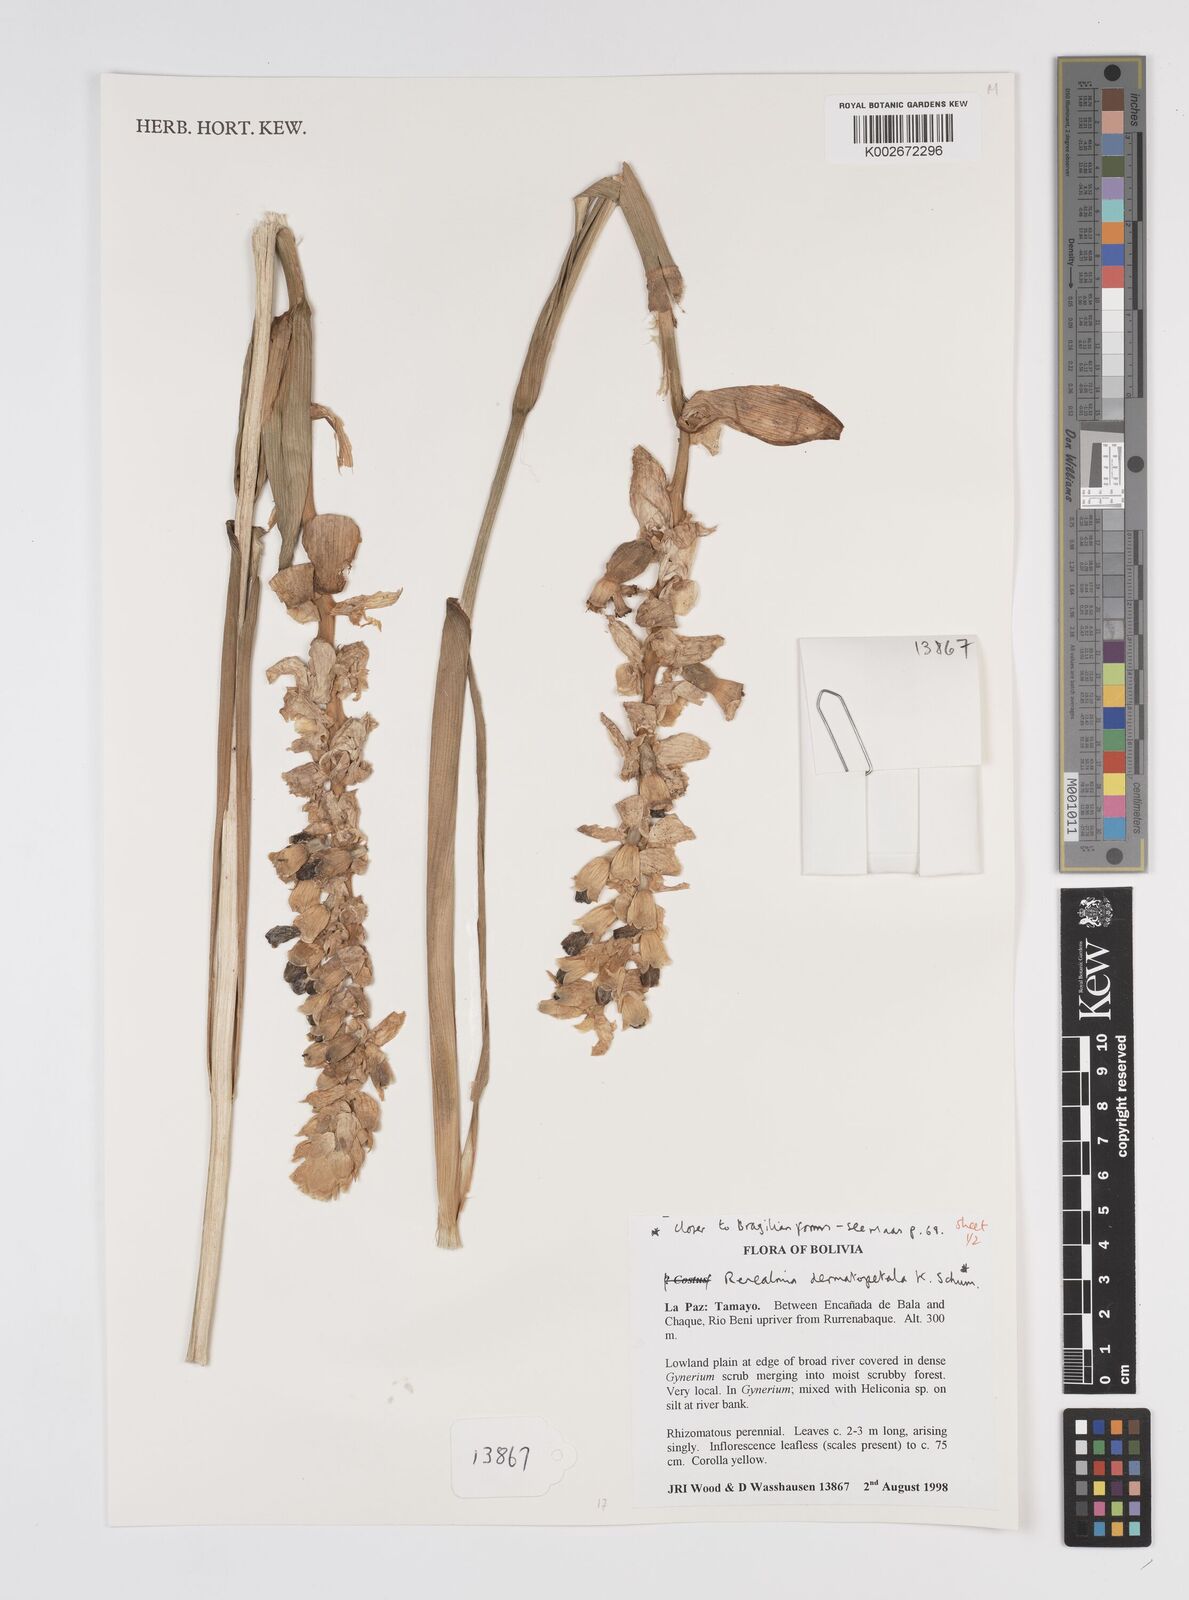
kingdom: Plantae
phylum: Tracheophyta
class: Liliopsida
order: Zingiberales
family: Zingiberaceae
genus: Renealmia
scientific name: Renealmia dermatopetala
